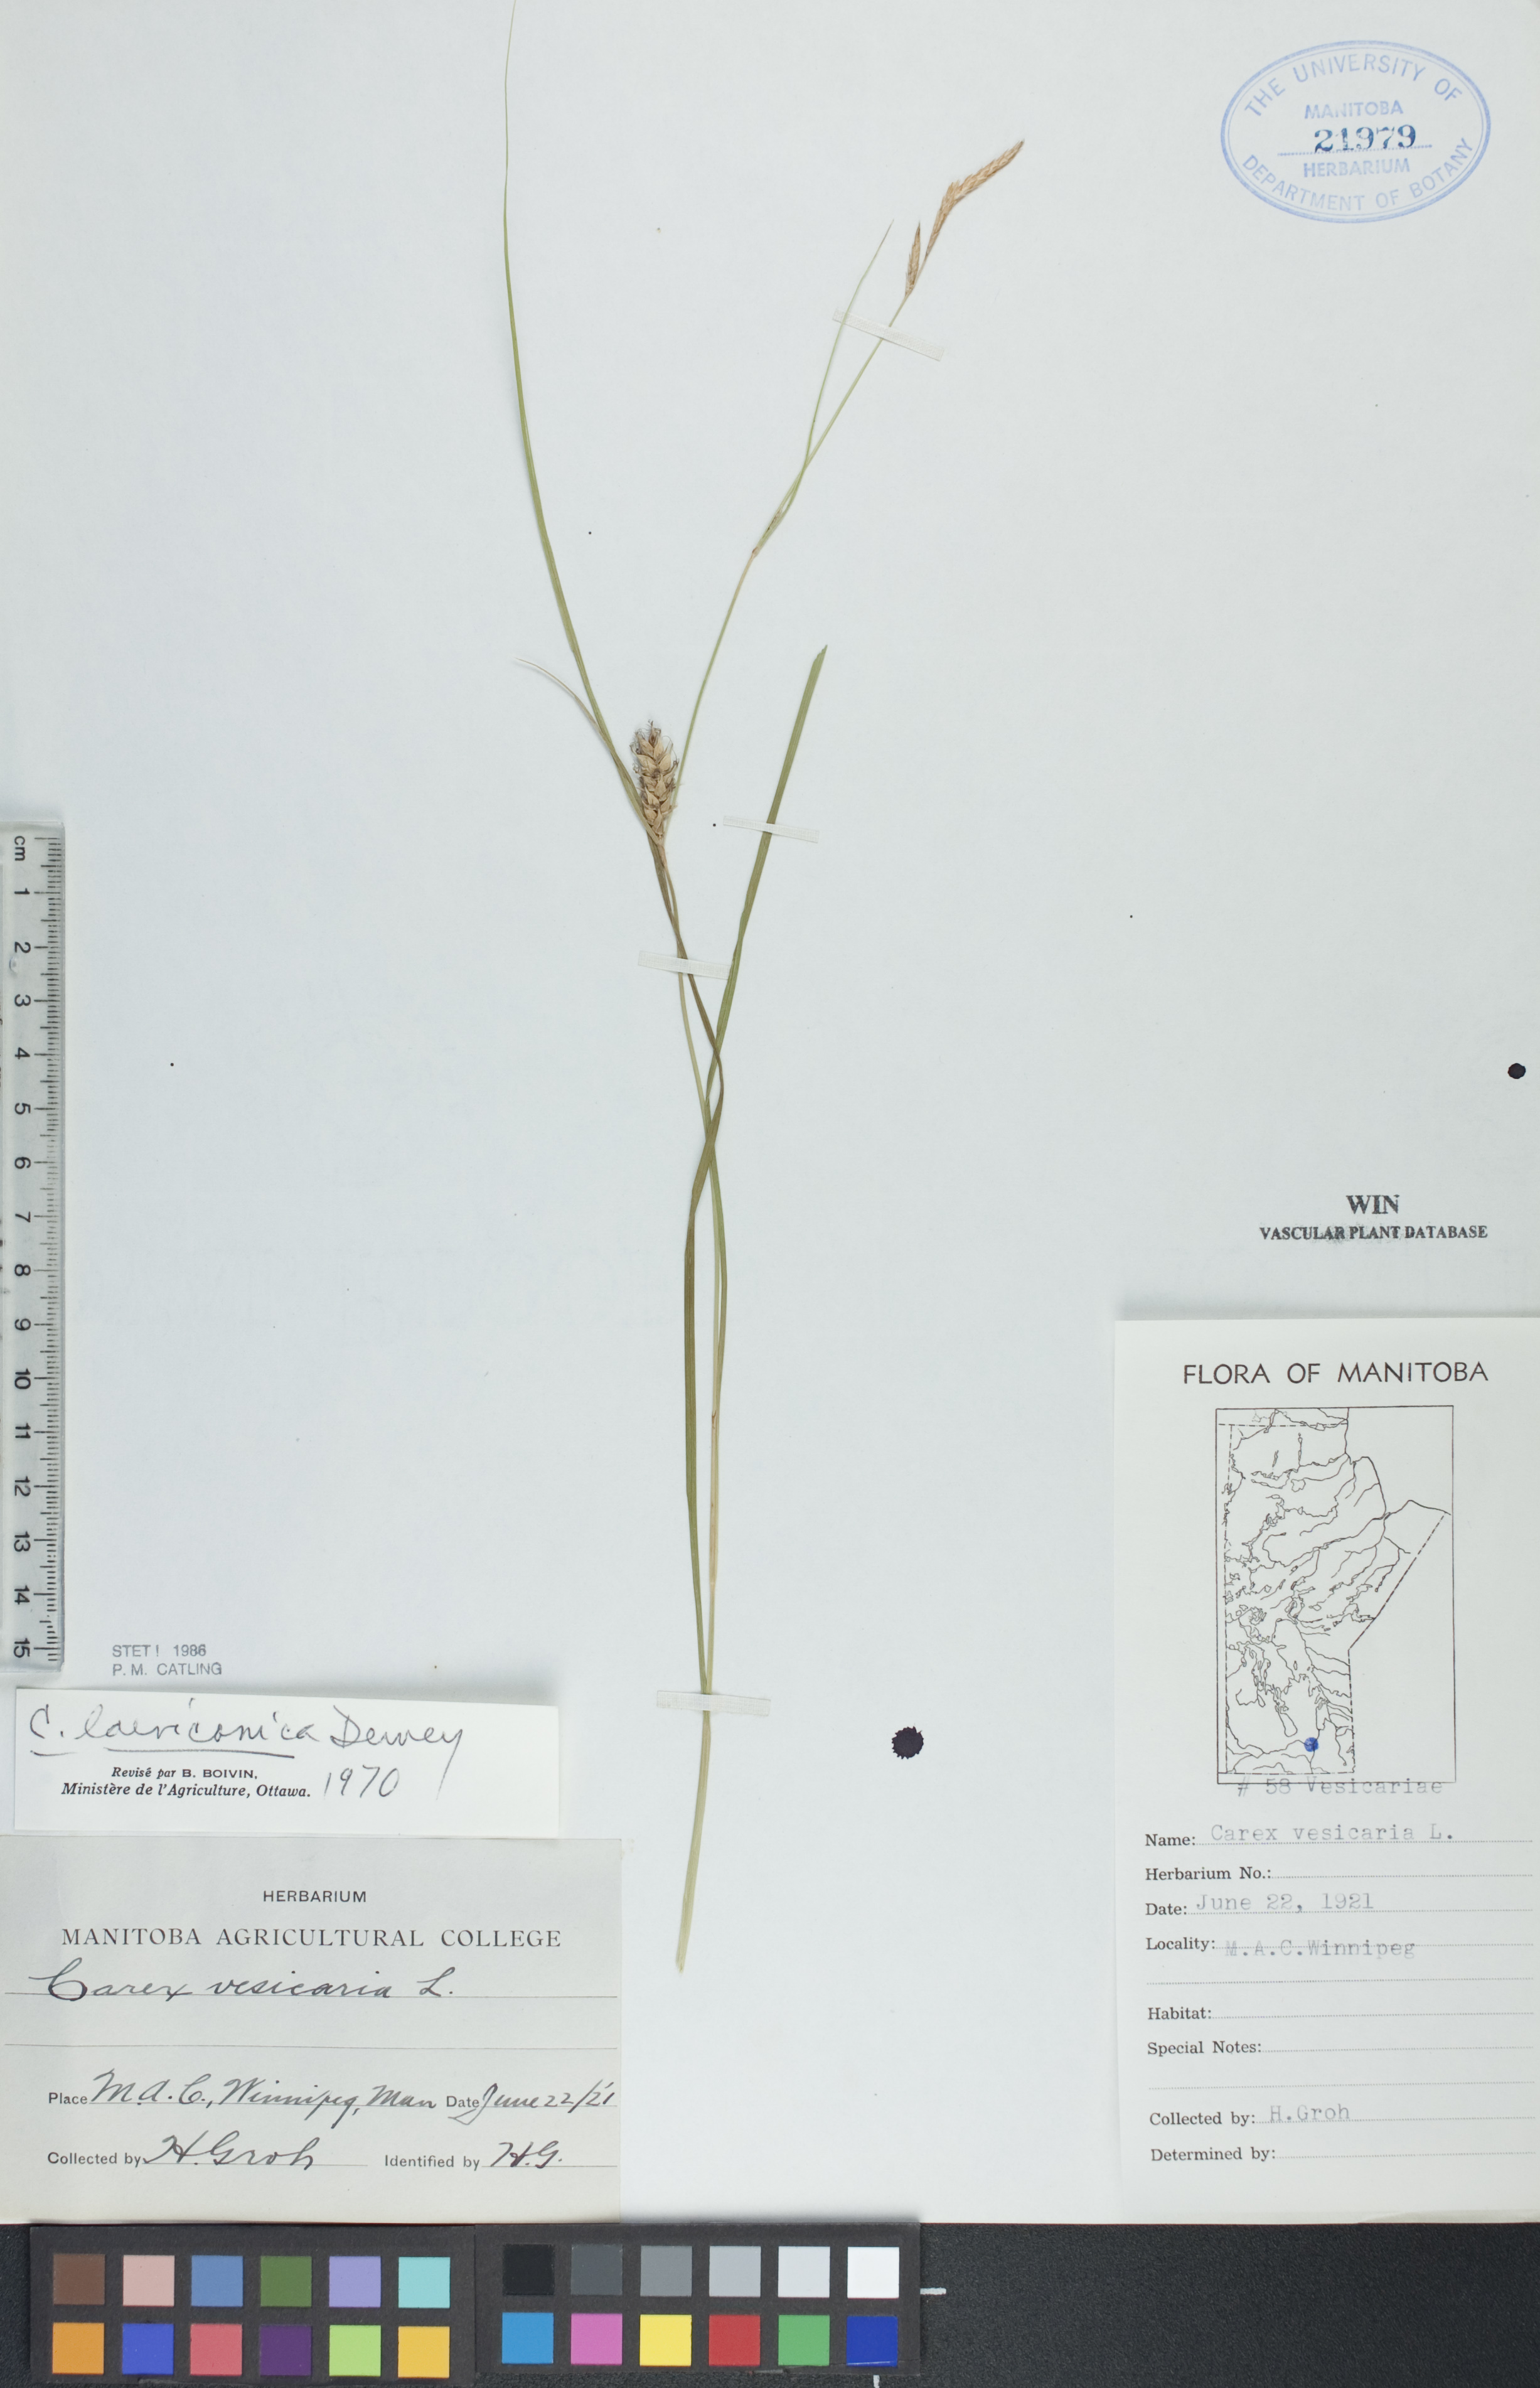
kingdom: Plantae
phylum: Tracheophyta
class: Liliopsida
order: Poales
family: Cyperaceae
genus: Carex
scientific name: Carex laeviconica
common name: Plains slough sedge
